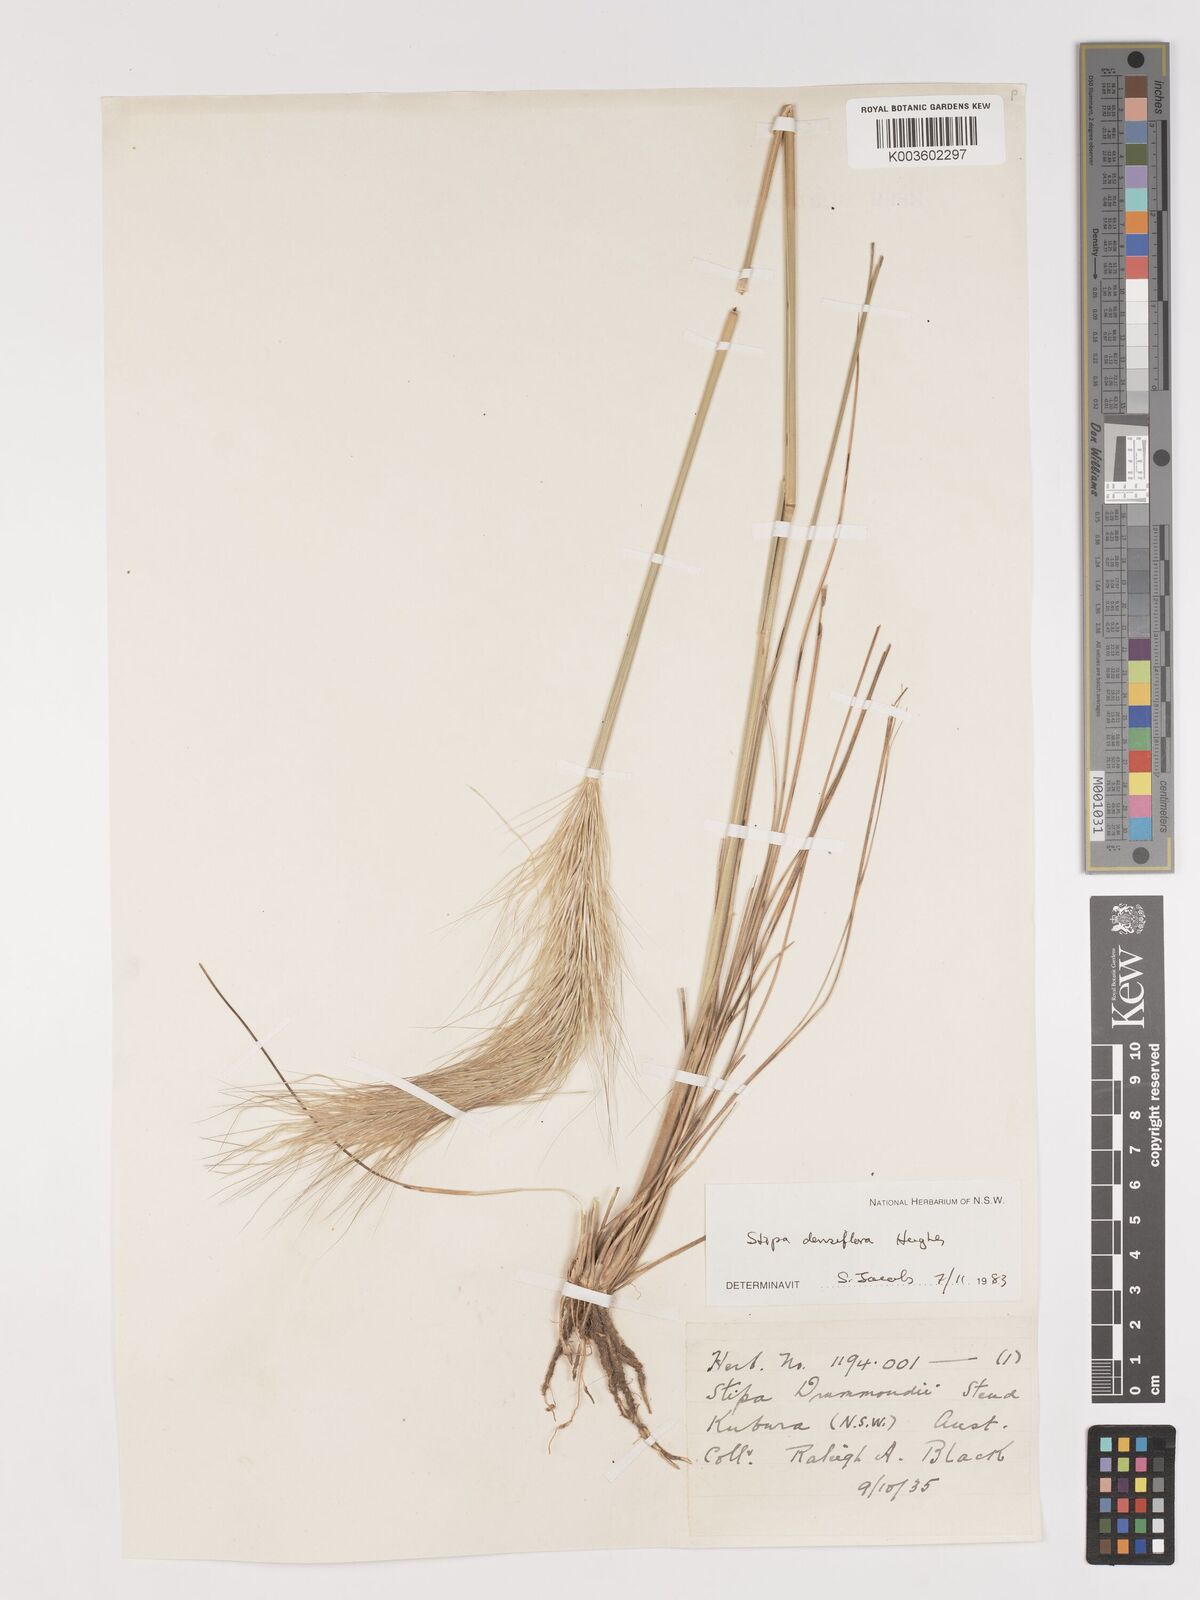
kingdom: Plantae
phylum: Tracheophyta
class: Liliopsida
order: Poales
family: Poaceae
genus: Stipa
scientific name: Stipa
